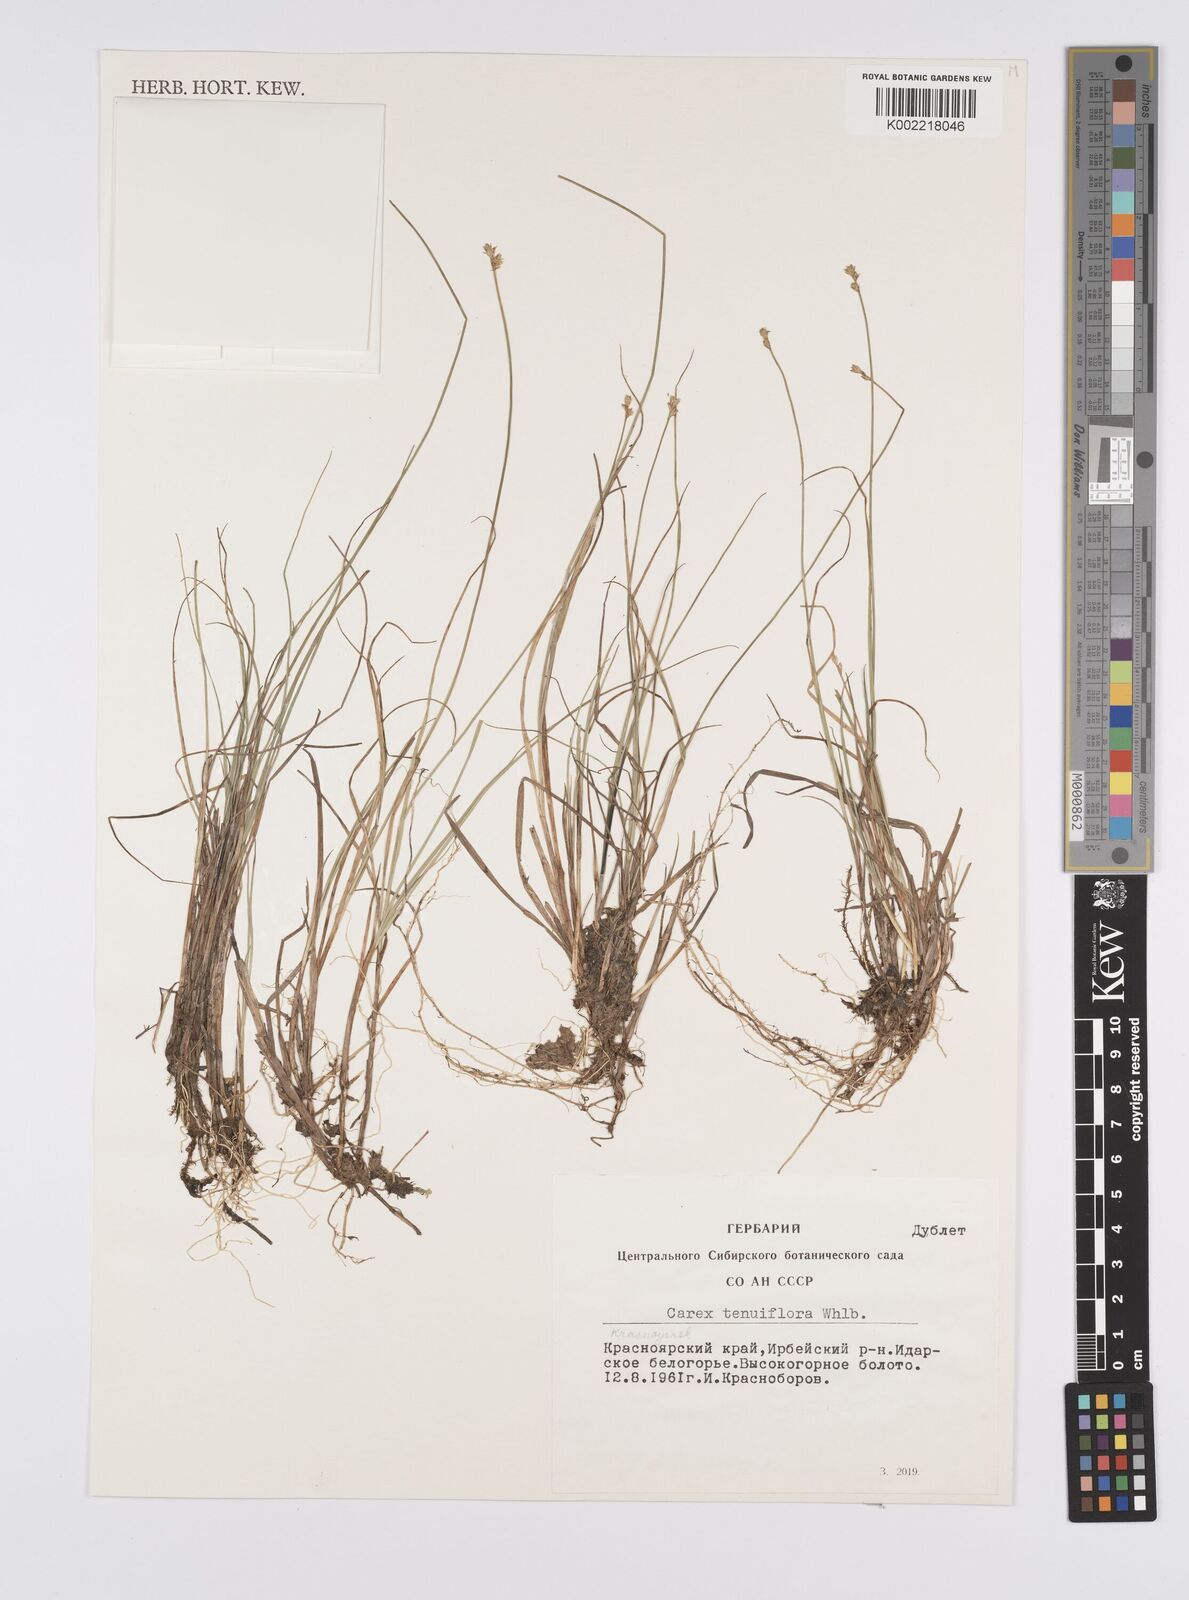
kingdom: Plantae
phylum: Tracheophyta
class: Liliopsida
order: Poales
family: Cyperaceae
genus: Carex
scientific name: Carex tenuiflora
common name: Sparse-flowered sedge
